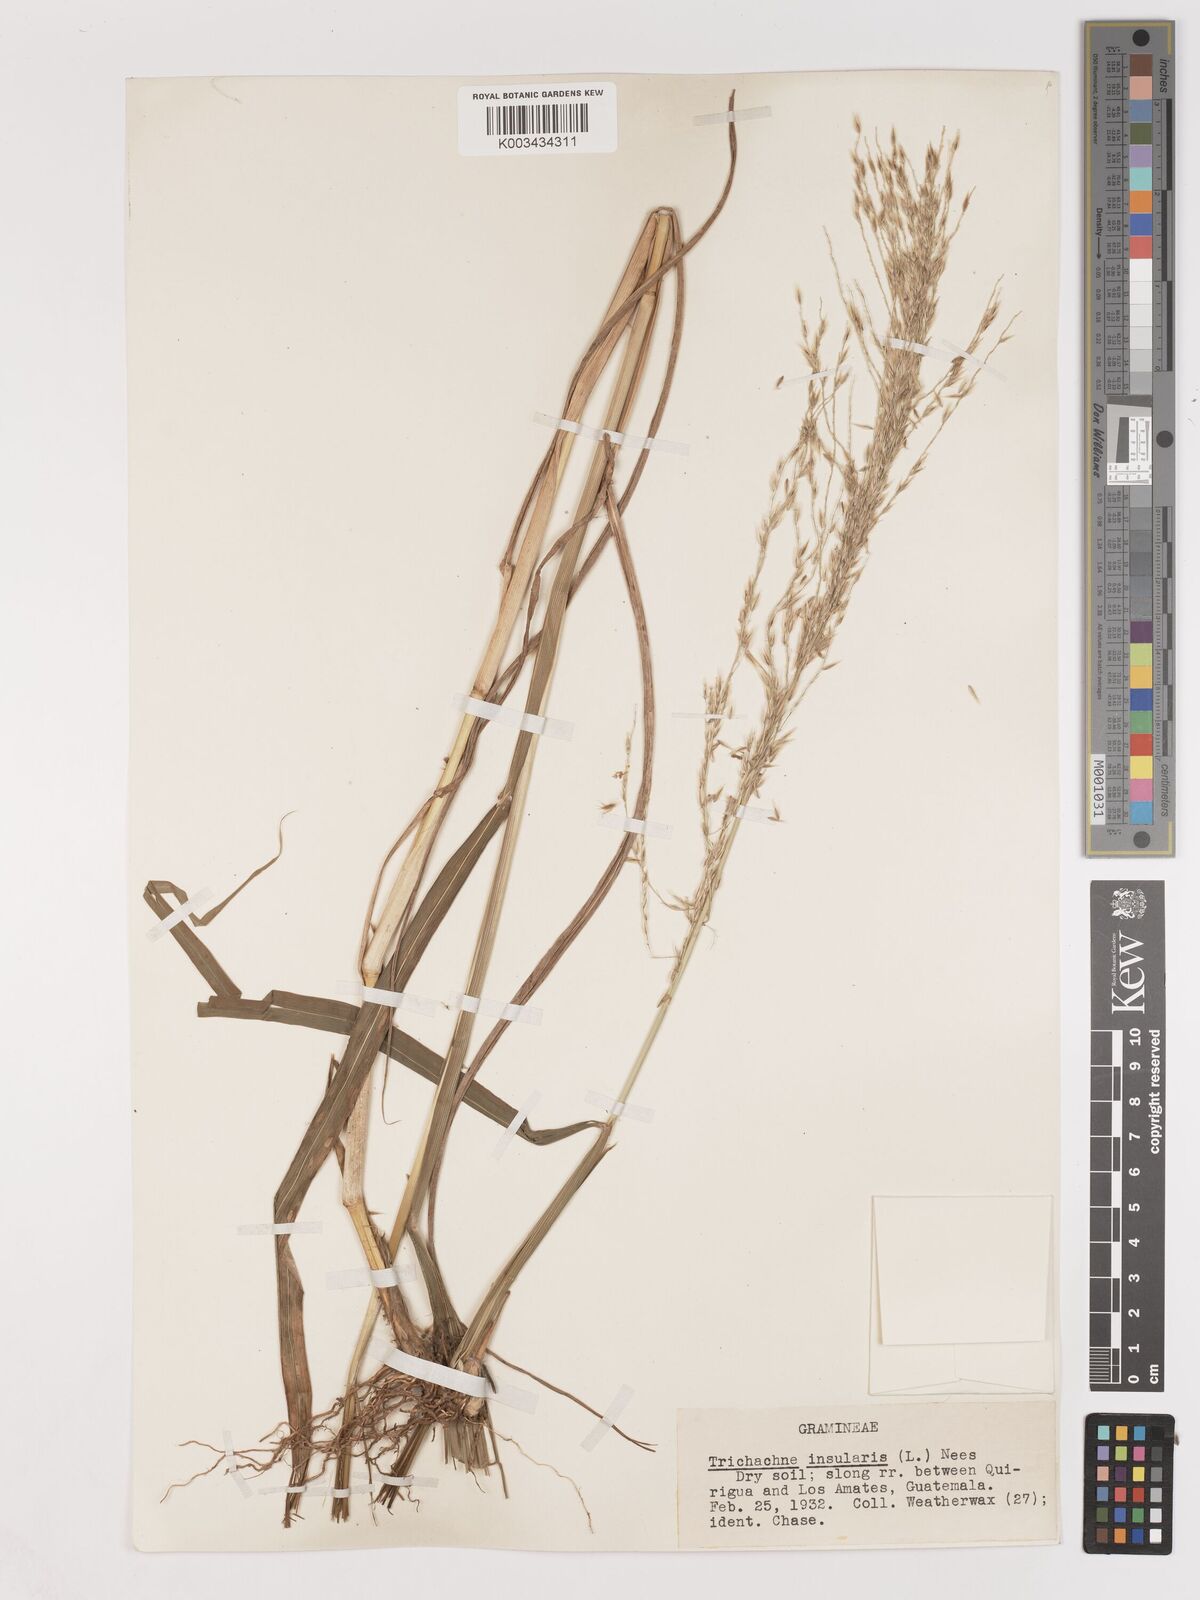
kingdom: Plantae
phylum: Tracheophyta
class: Liliopsida
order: Poales
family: Poaceae
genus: Digitaria
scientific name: Digitaria insularis
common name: Sourgrass
